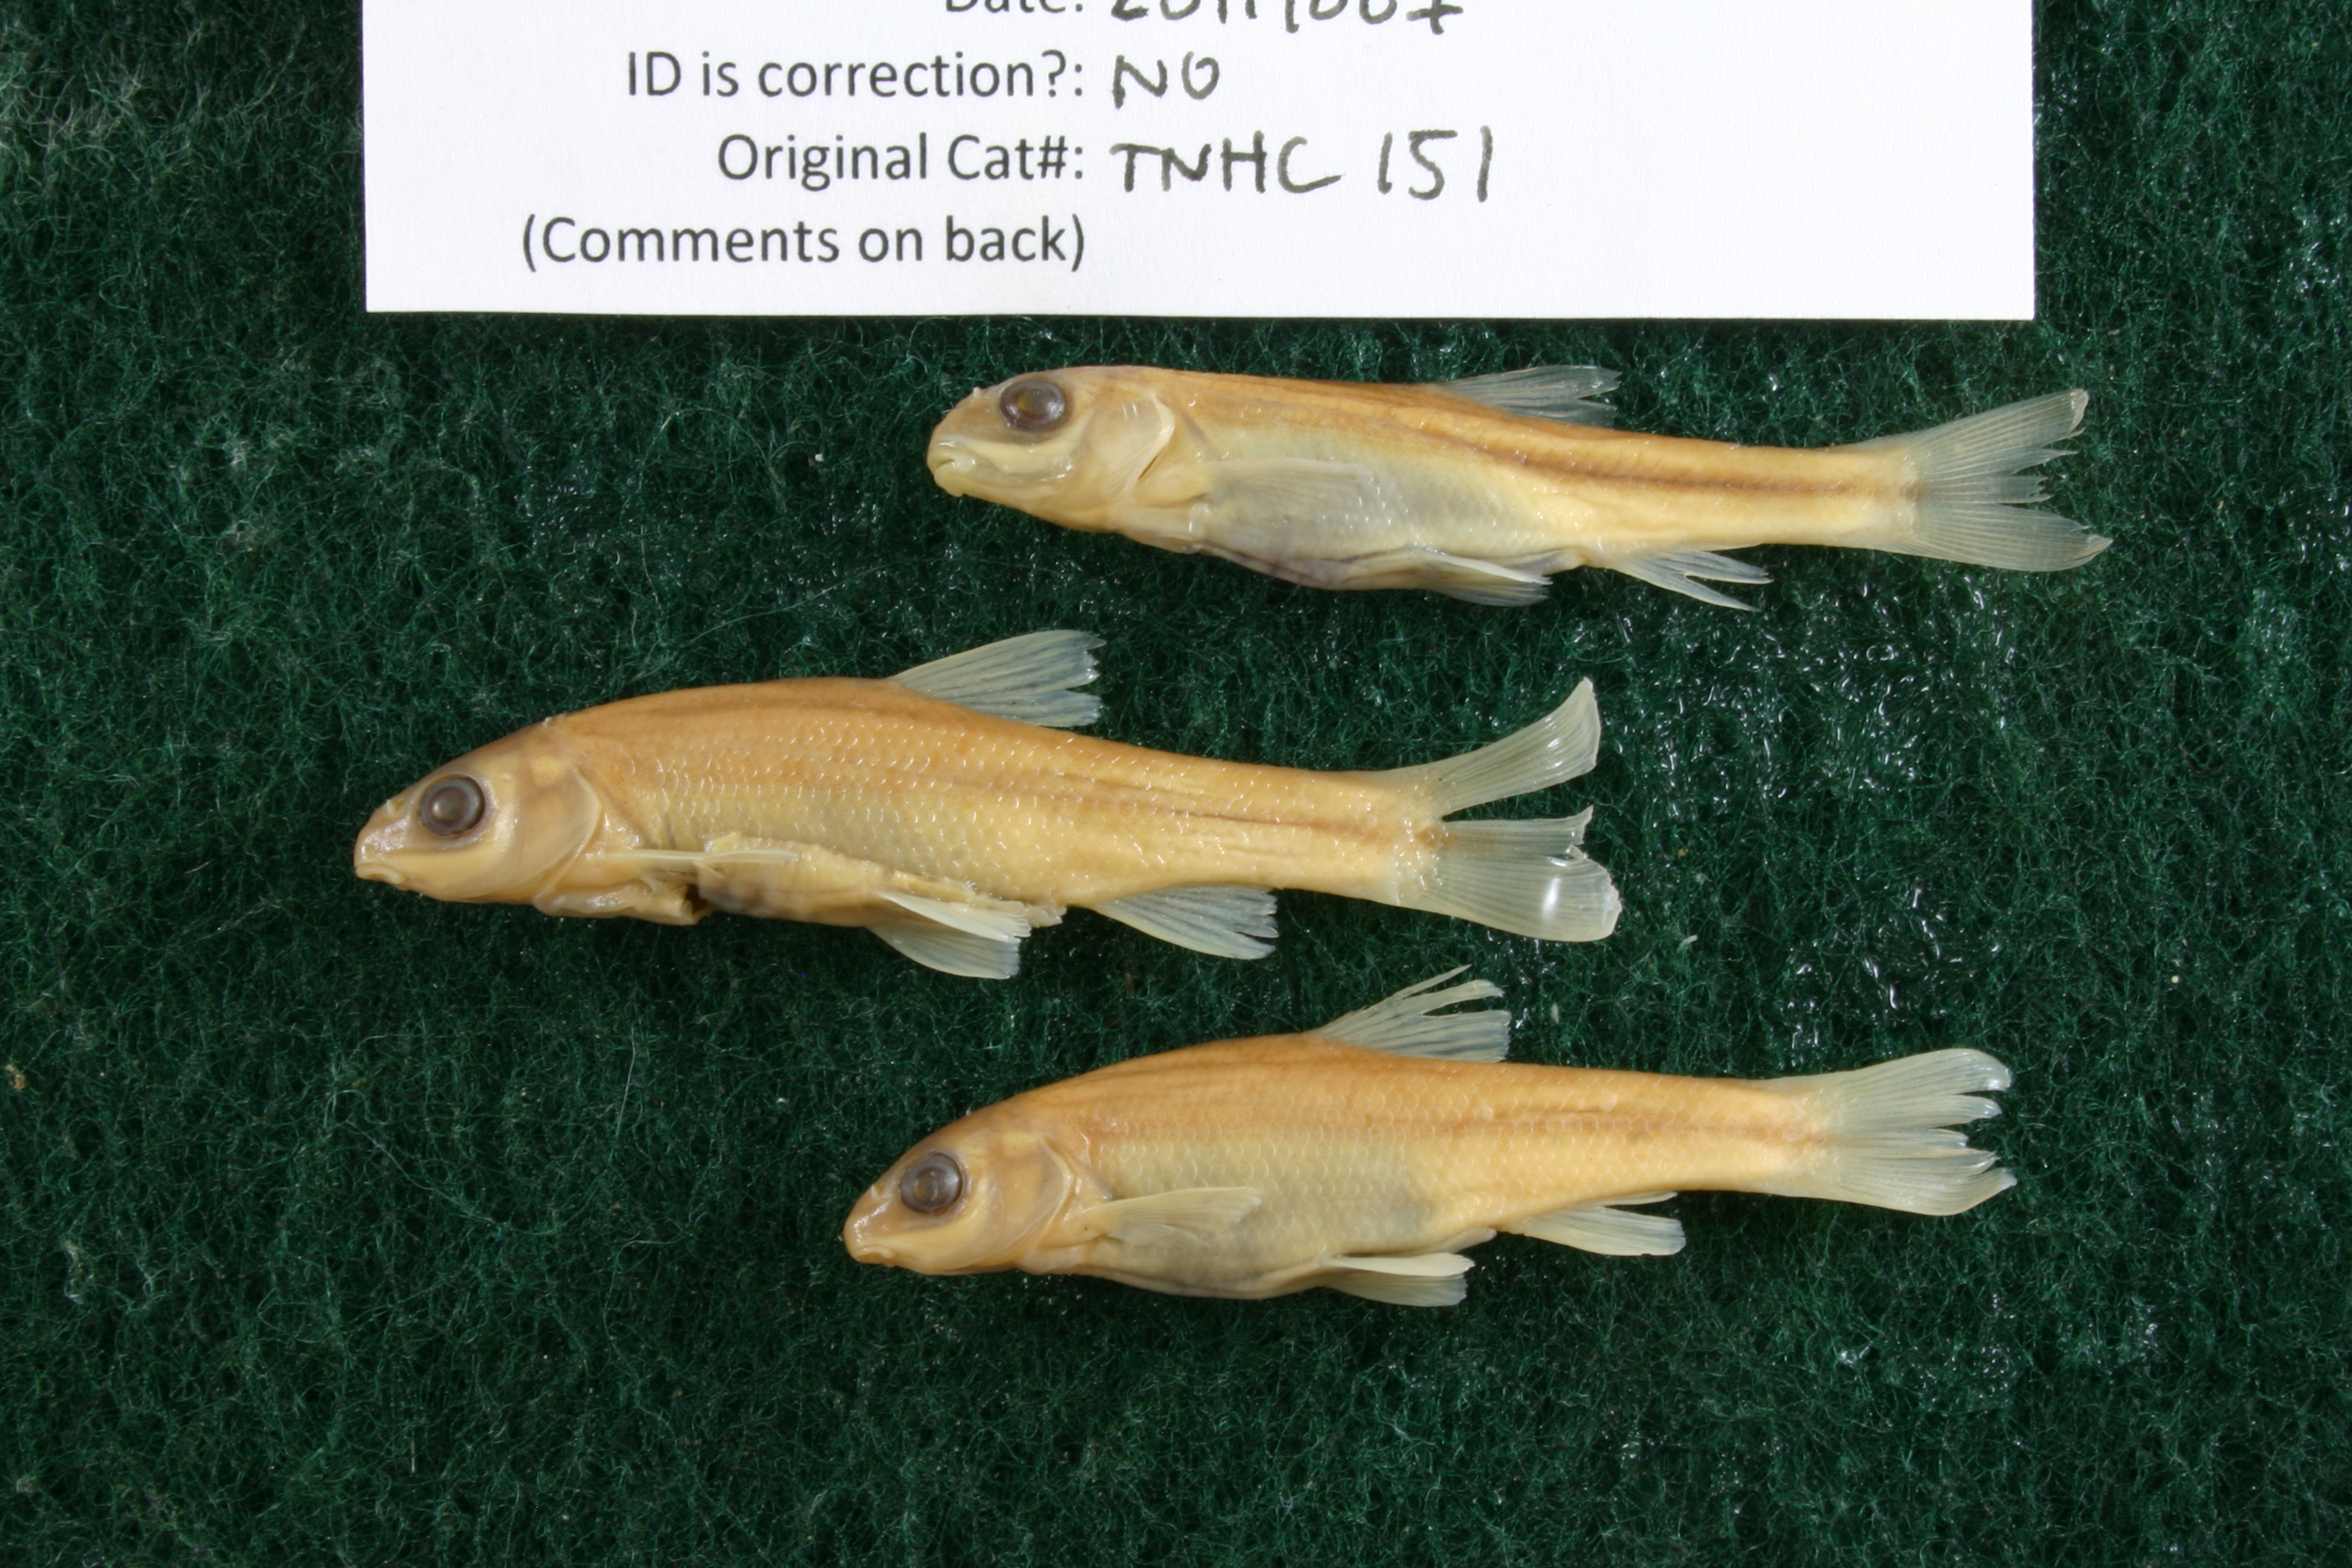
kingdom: Animalia
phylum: Chordata
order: Cypriniformes
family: Cyprinidae
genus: Campostoma
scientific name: Campostoma pullum
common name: Central stoneroller
